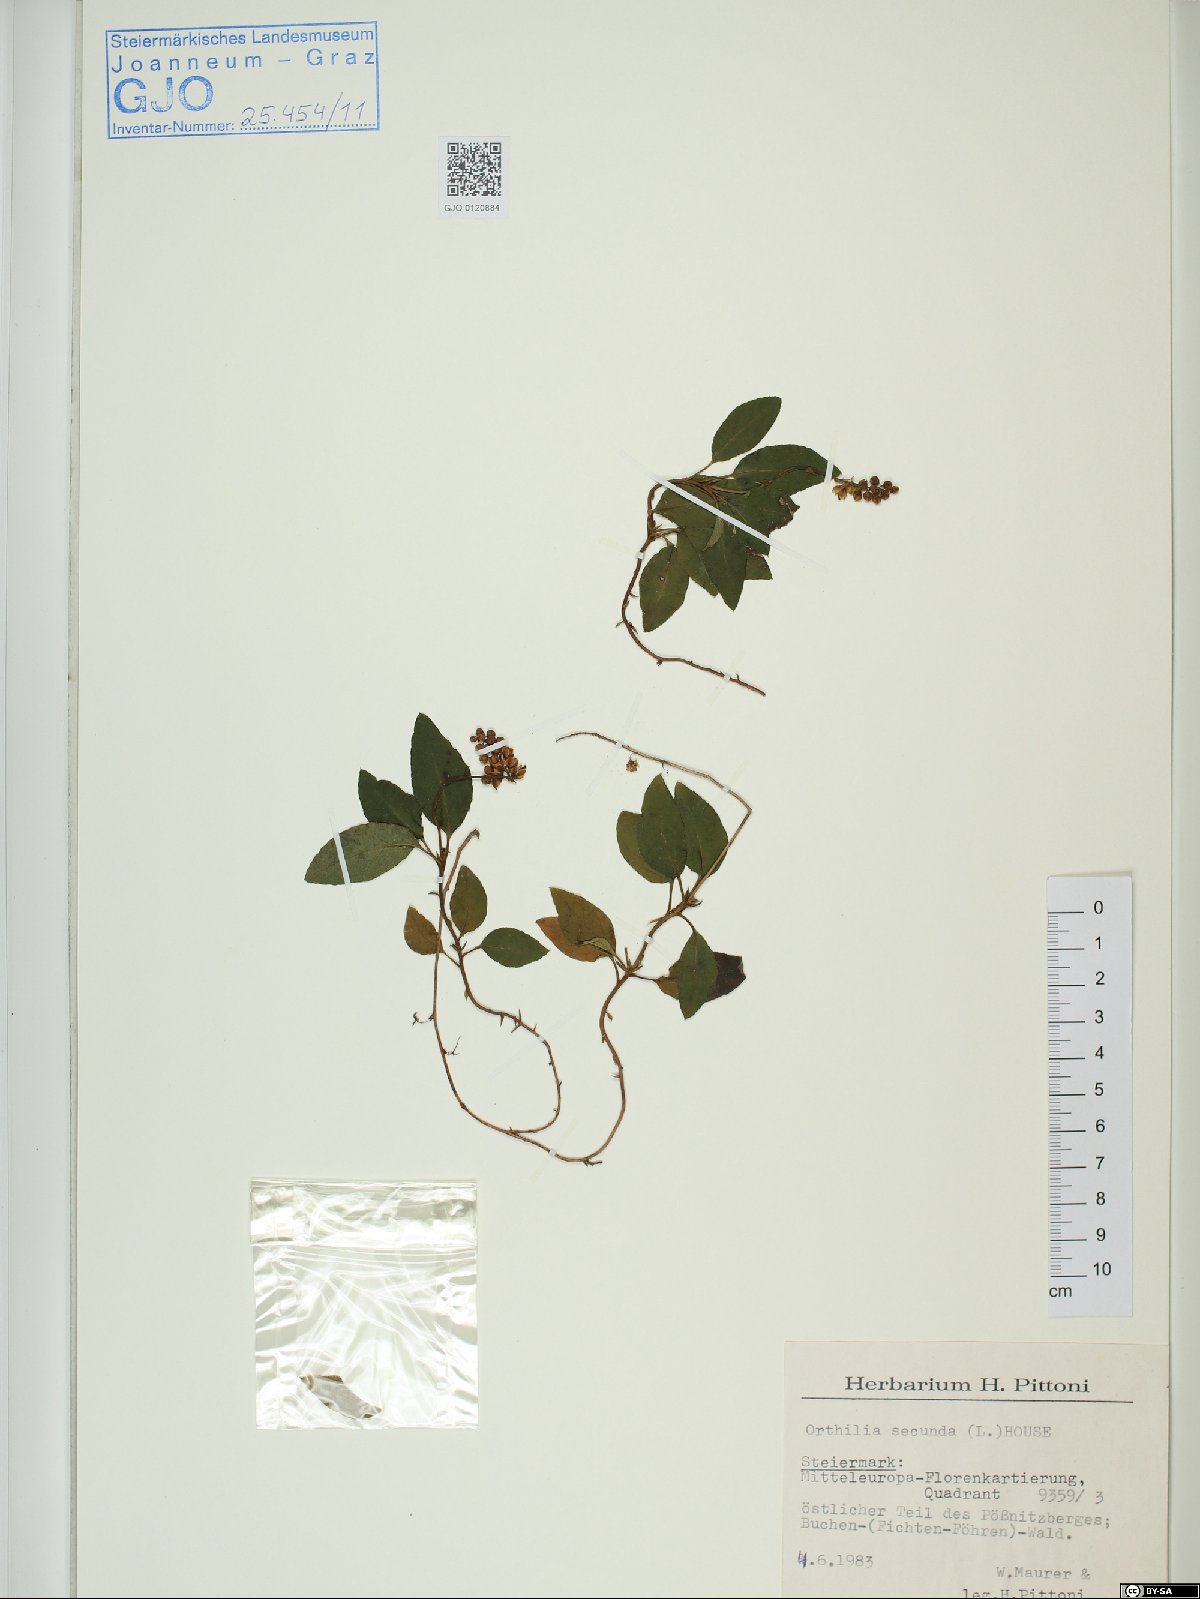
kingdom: Plantae
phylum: Tracheophyta
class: Magnoliopsida
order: Ericales
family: Ericaceae
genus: Orthilia
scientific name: Orthilia secunda
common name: One-sided orthilia
